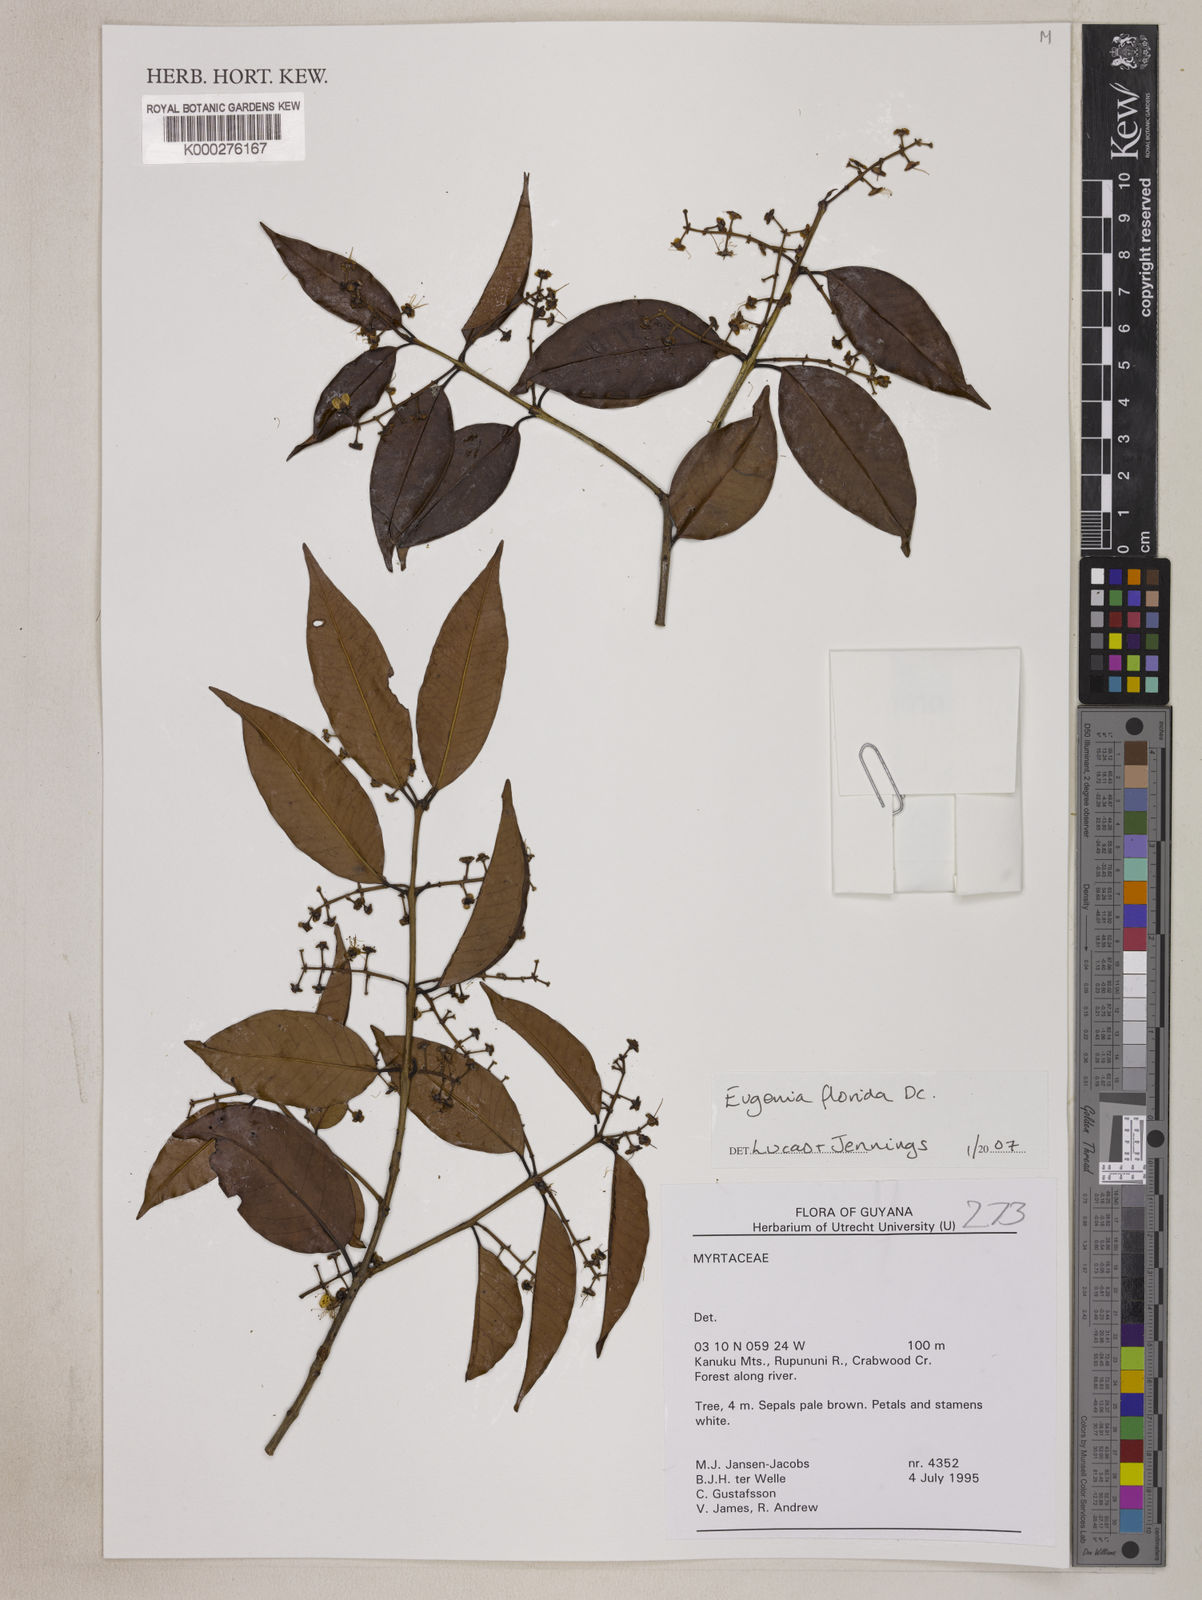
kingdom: Plantae
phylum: Tracheophyta
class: Magnoliopsida
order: Myrtales
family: Myrtaceae
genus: Eugenia
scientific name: Eugenia florida
